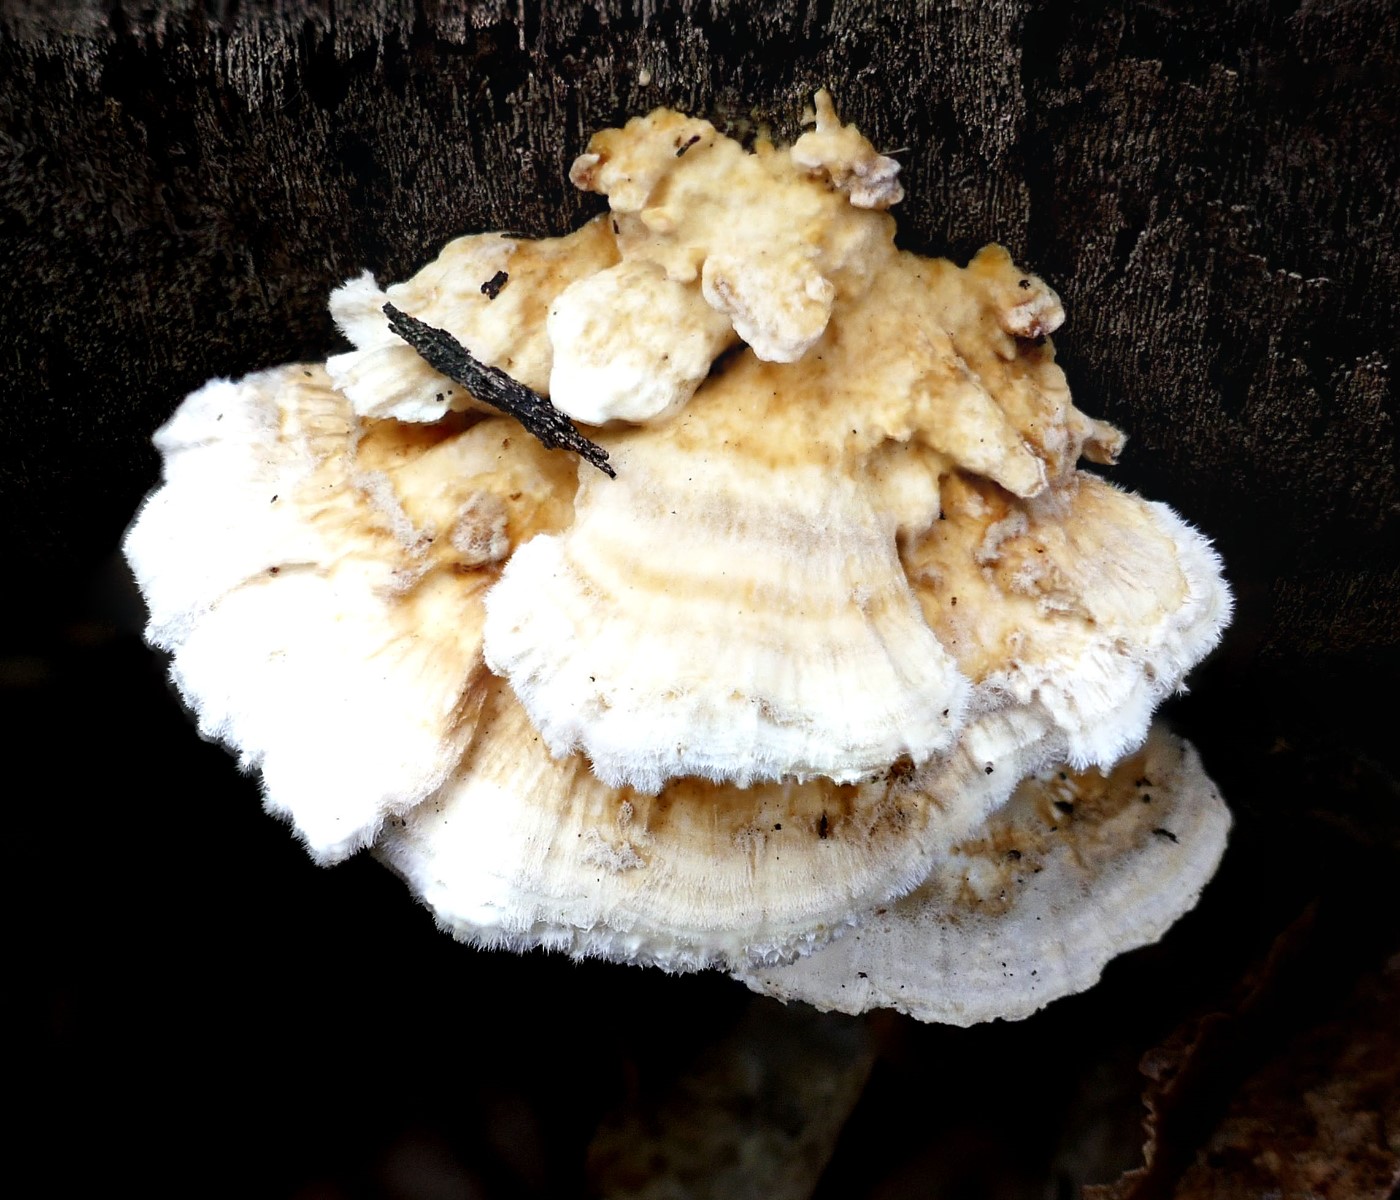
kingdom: Fungi
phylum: Basidiomycota
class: Agaricomycetes
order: Polyporales
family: Polyporaceae
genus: Trametes
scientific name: Trametes ochracea
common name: bæltet læderporesvamp
